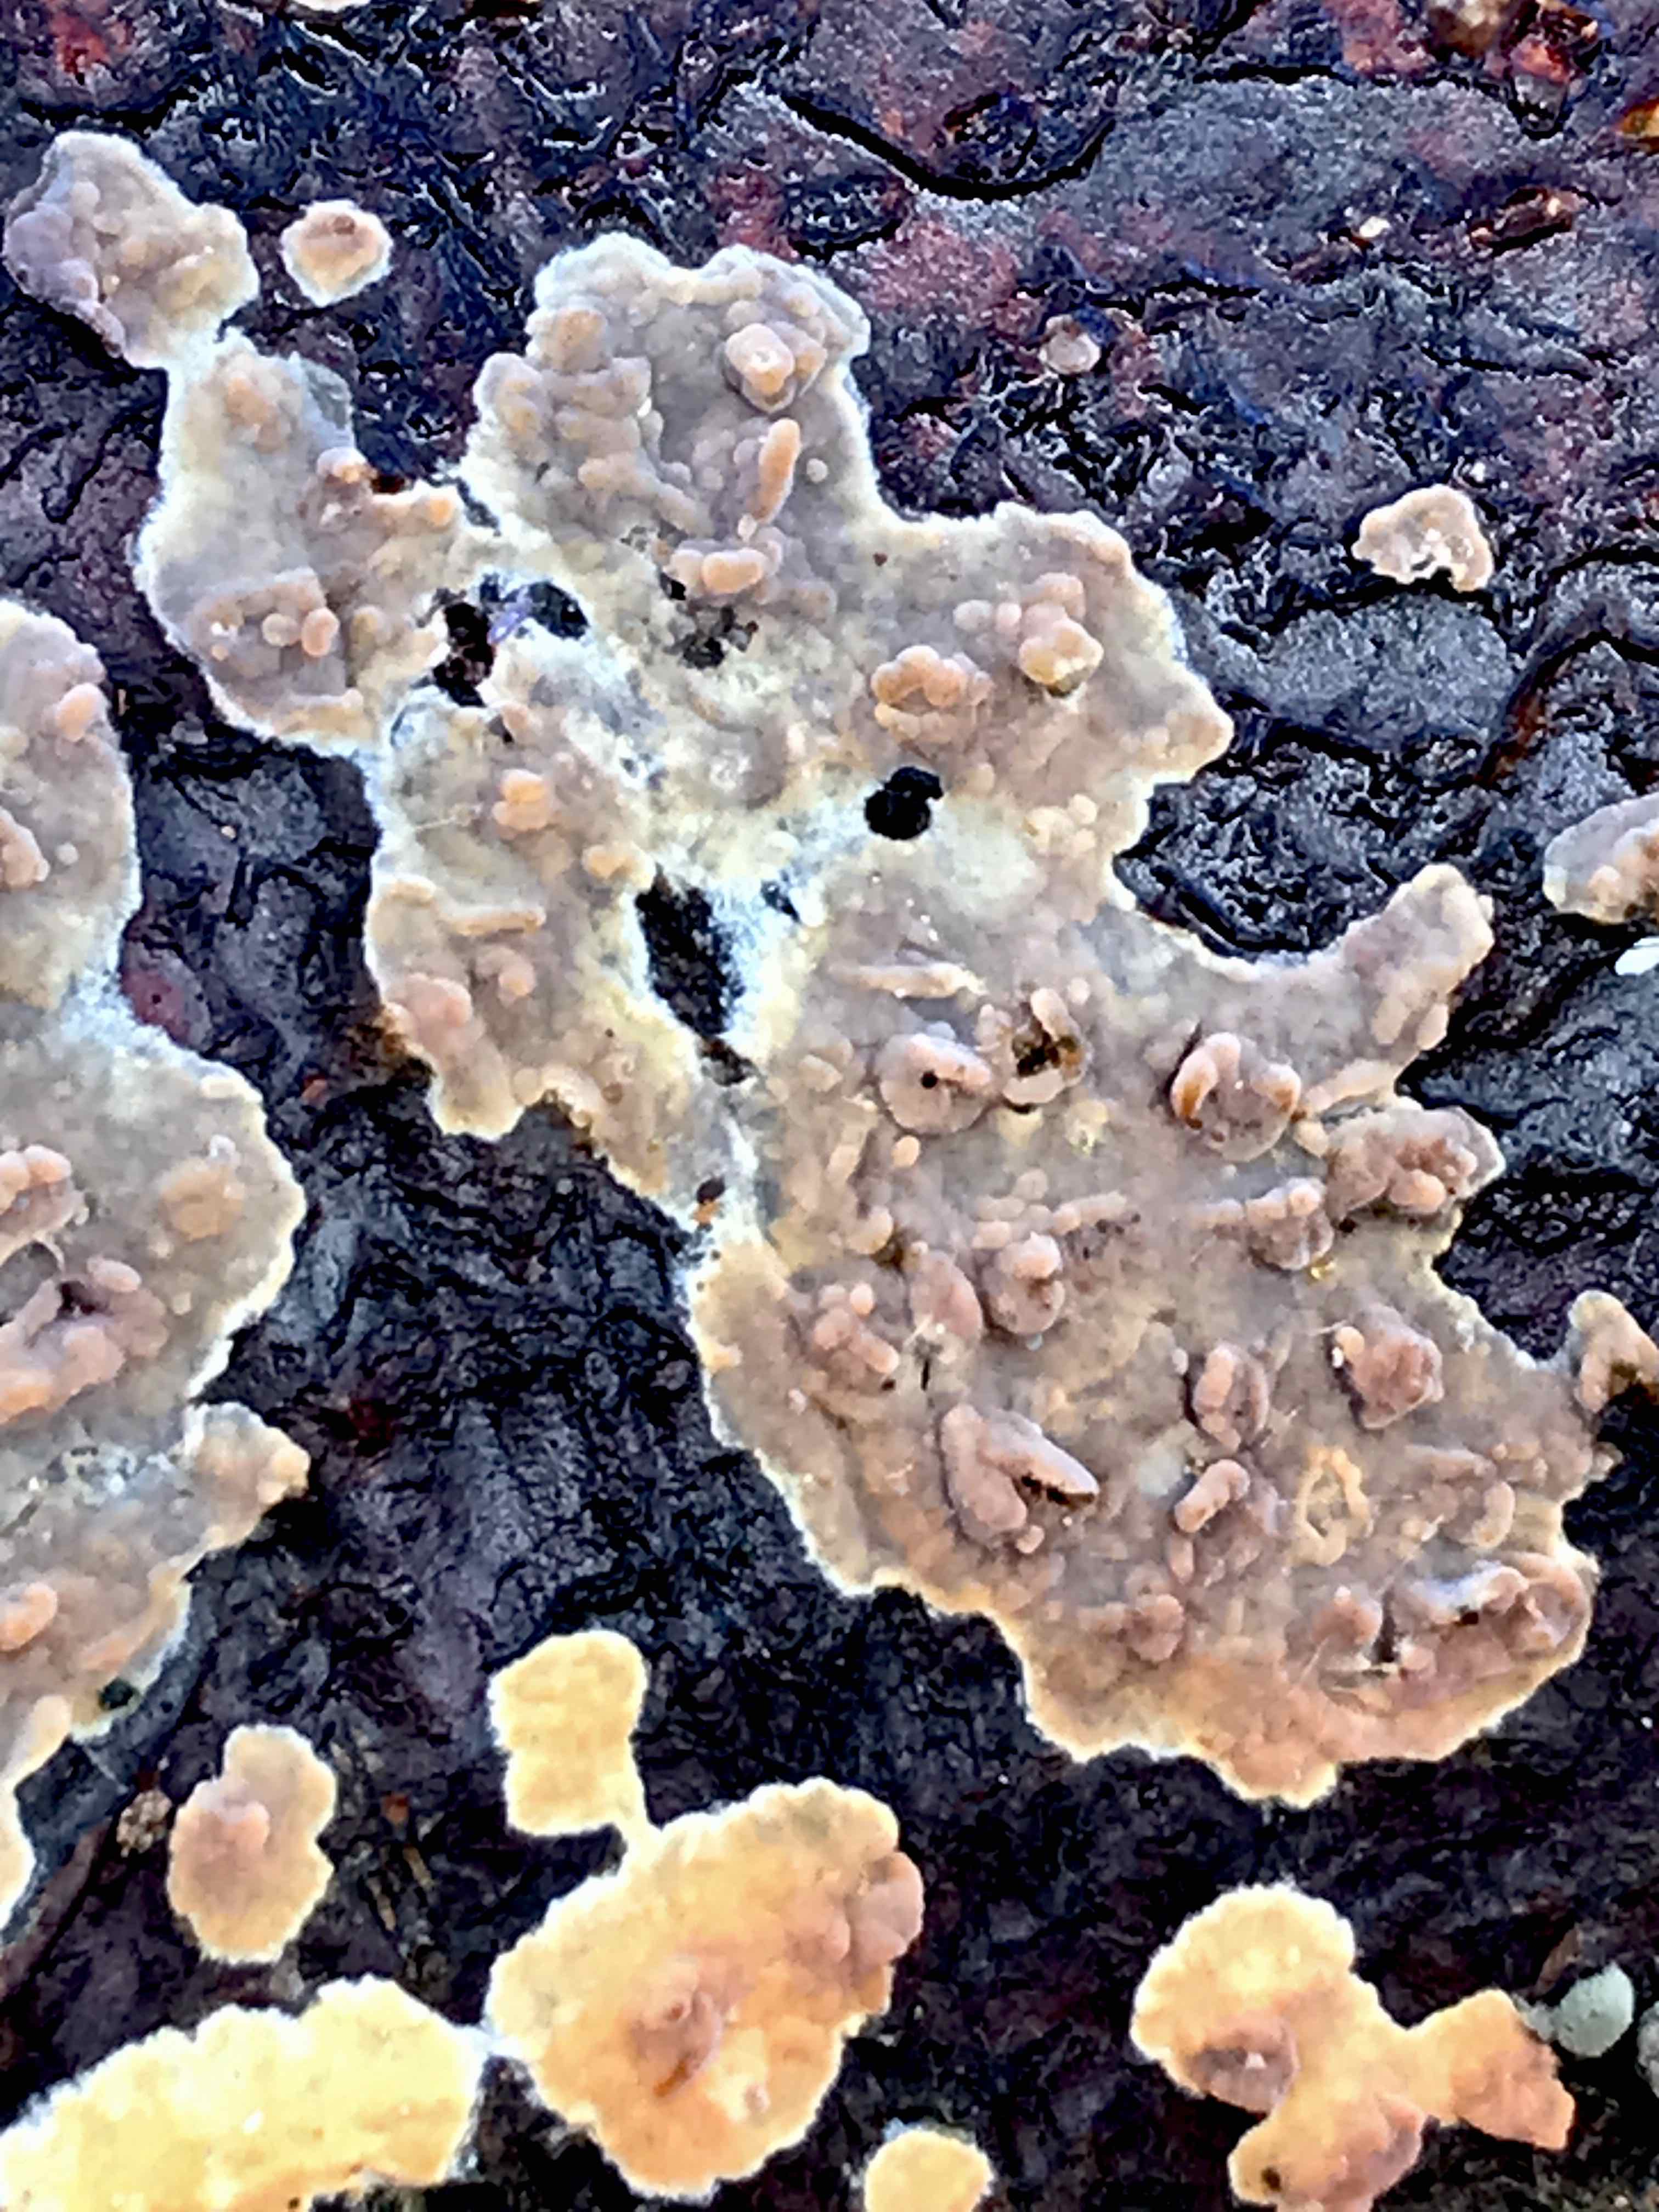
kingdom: Fungi
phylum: Basidiomycota
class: Agaricomycetes
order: Polyporales
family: Meruliaceae
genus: Phlebia
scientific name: Phlebia radiata
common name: stråle-åresvamp
